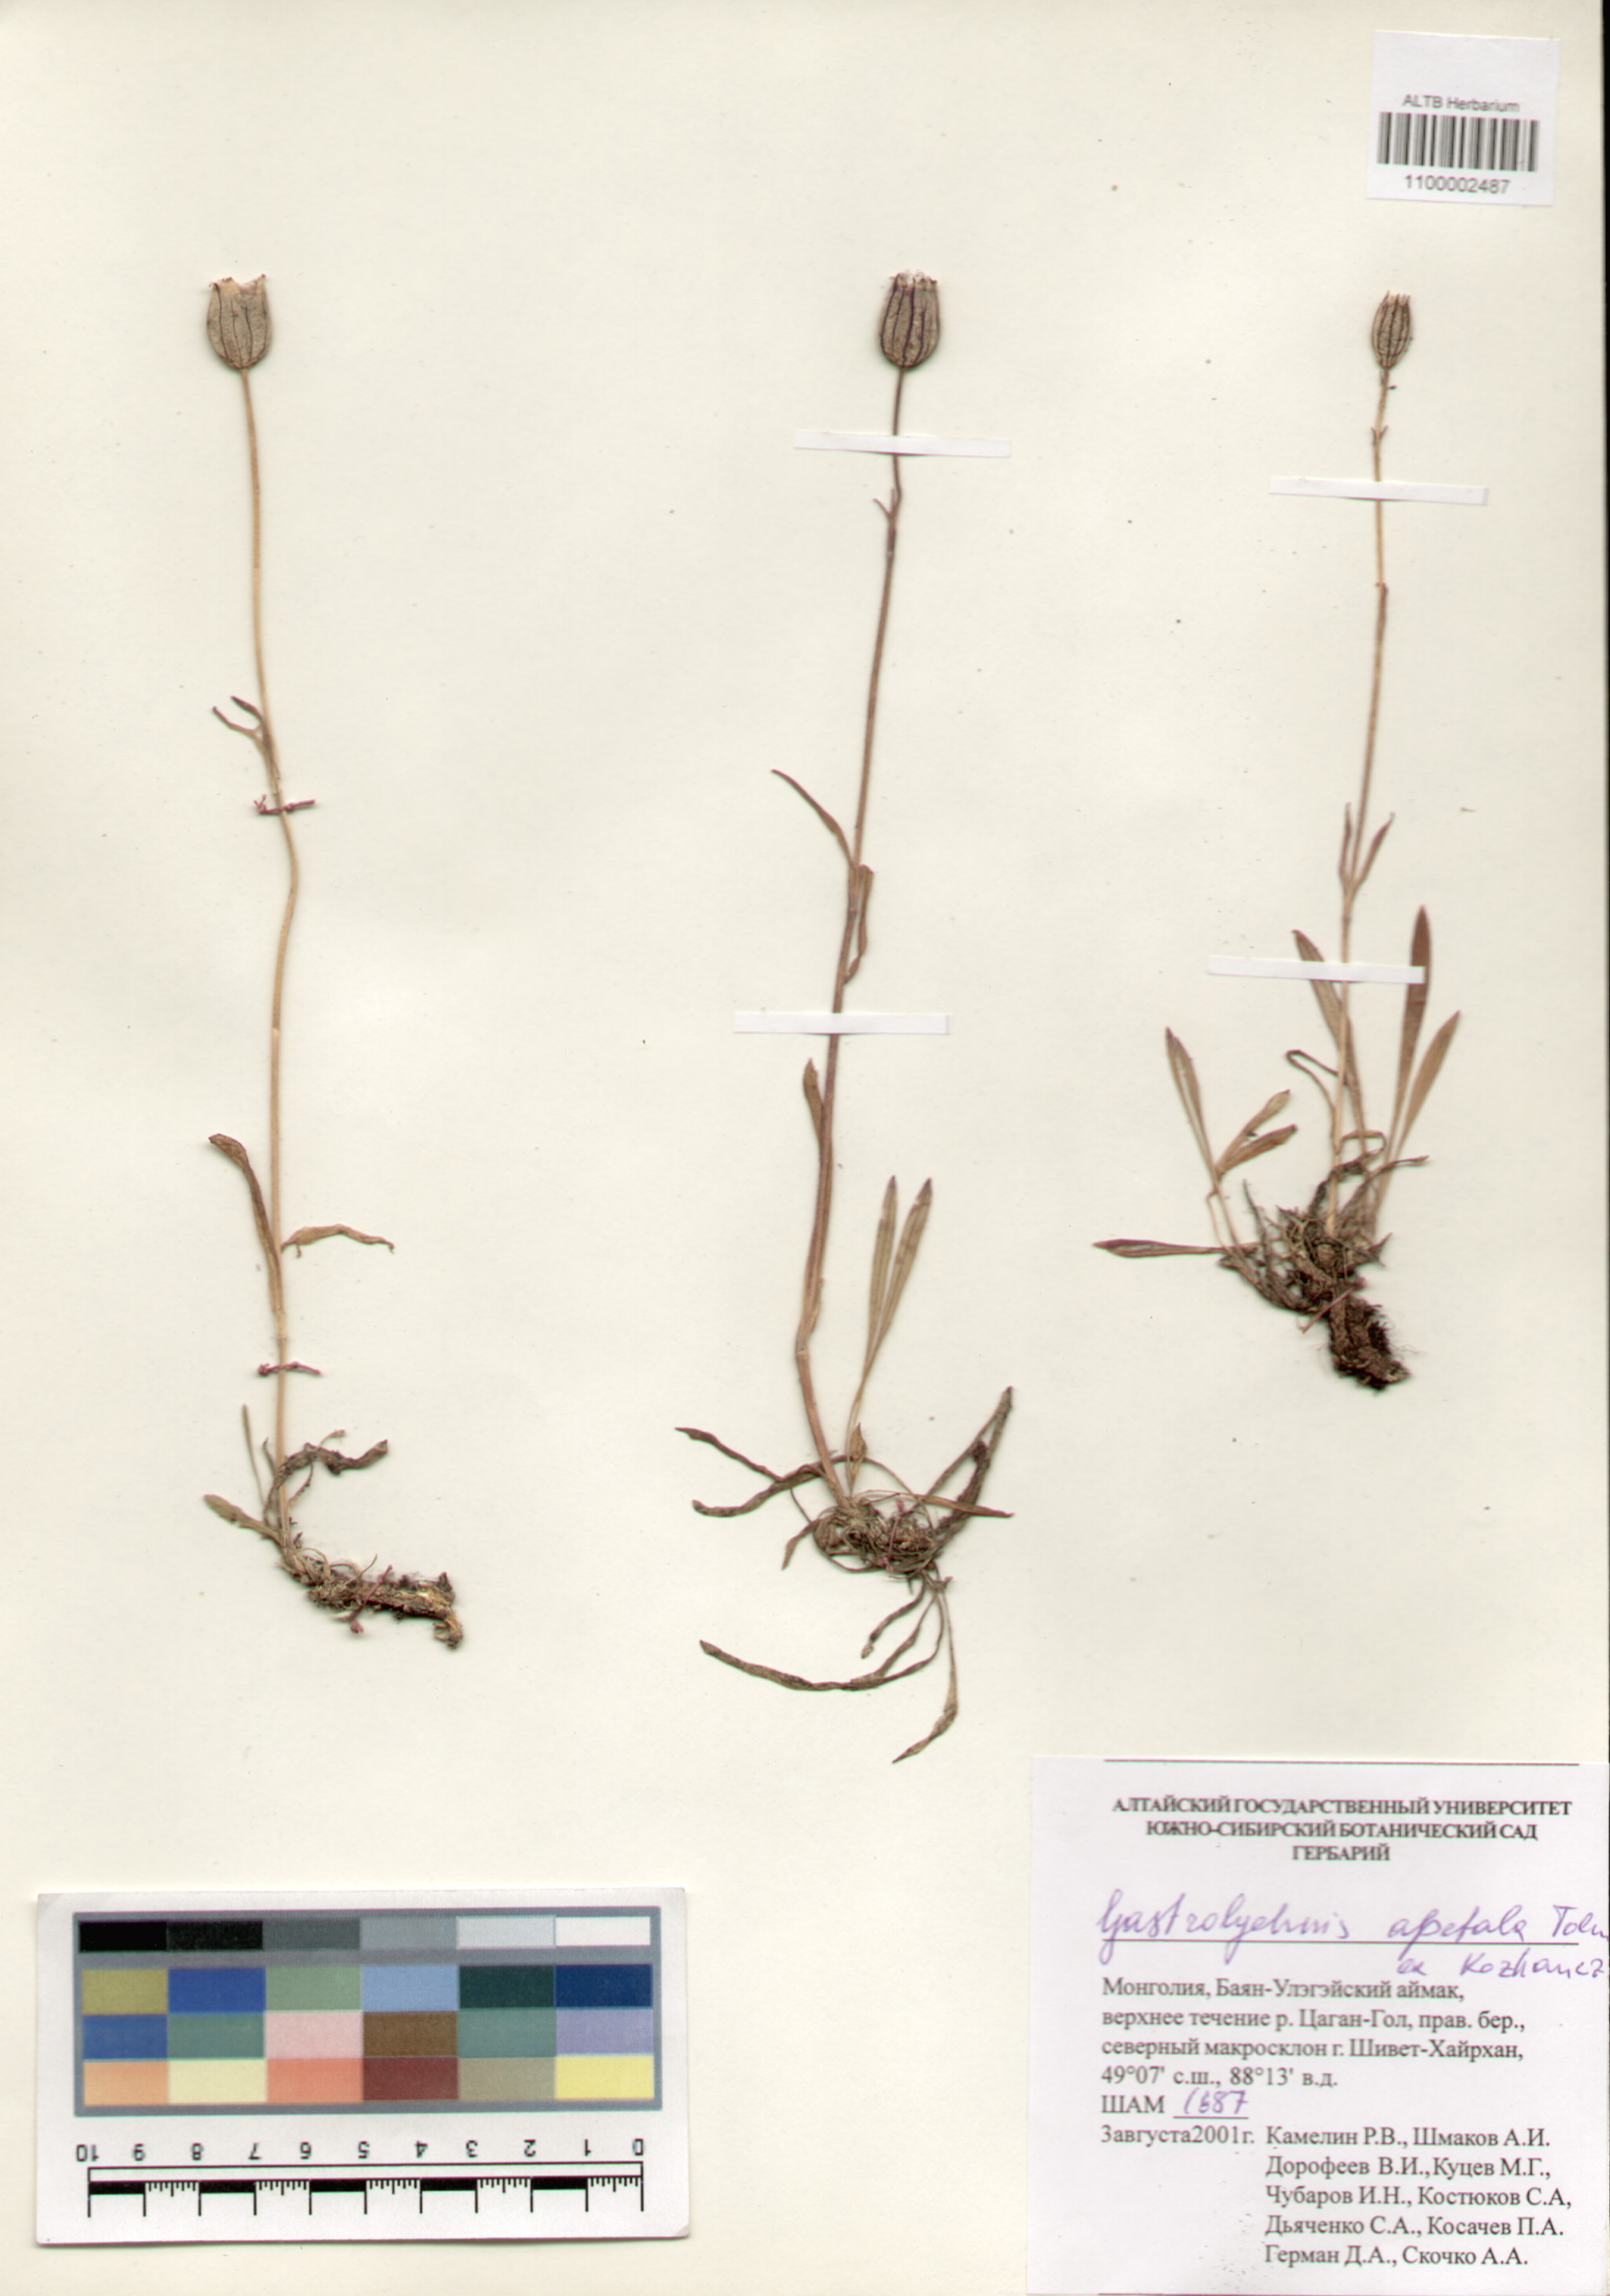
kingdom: Plantae
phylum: Tracheophyta
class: Magnoliopsida
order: Caryophyllales
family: Caryophyllaceae
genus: Silene
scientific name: Silene wahlbergella
